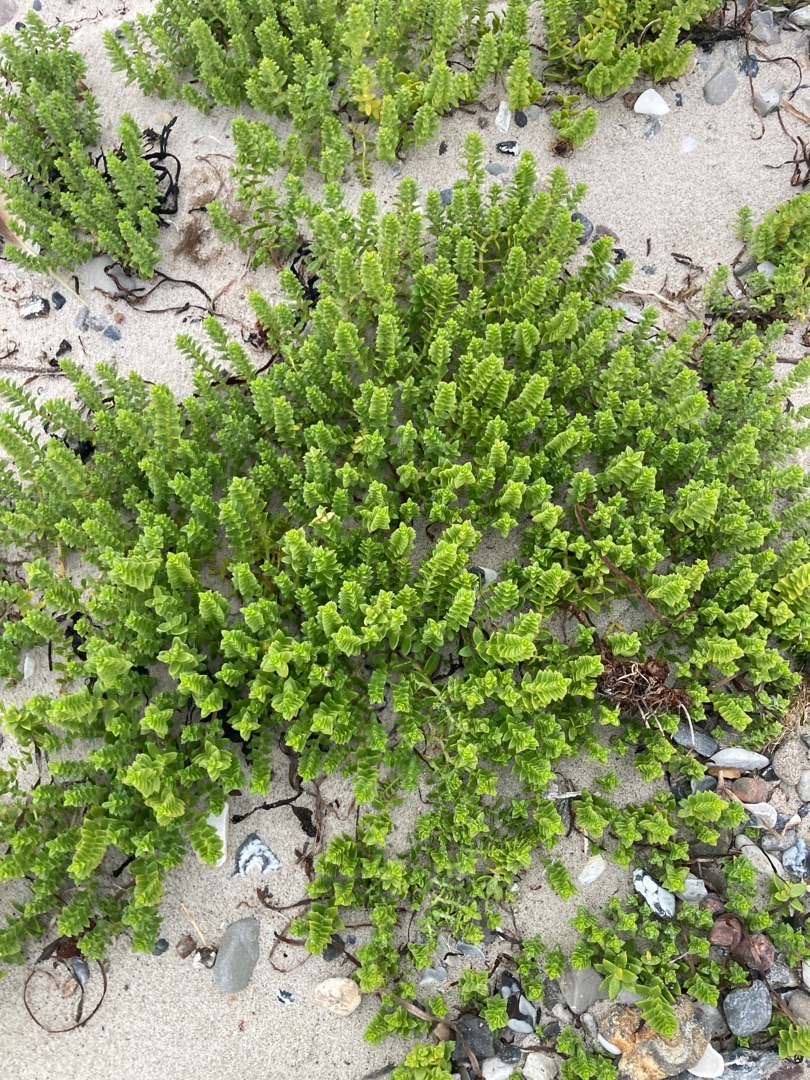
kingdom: Plantae
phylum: Tracheophyta
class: Magnoliopsida
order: Caryophyllales
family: Caryophyllaceae
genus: Honckenya
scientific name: Honckenya peploides
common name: Strandarve
